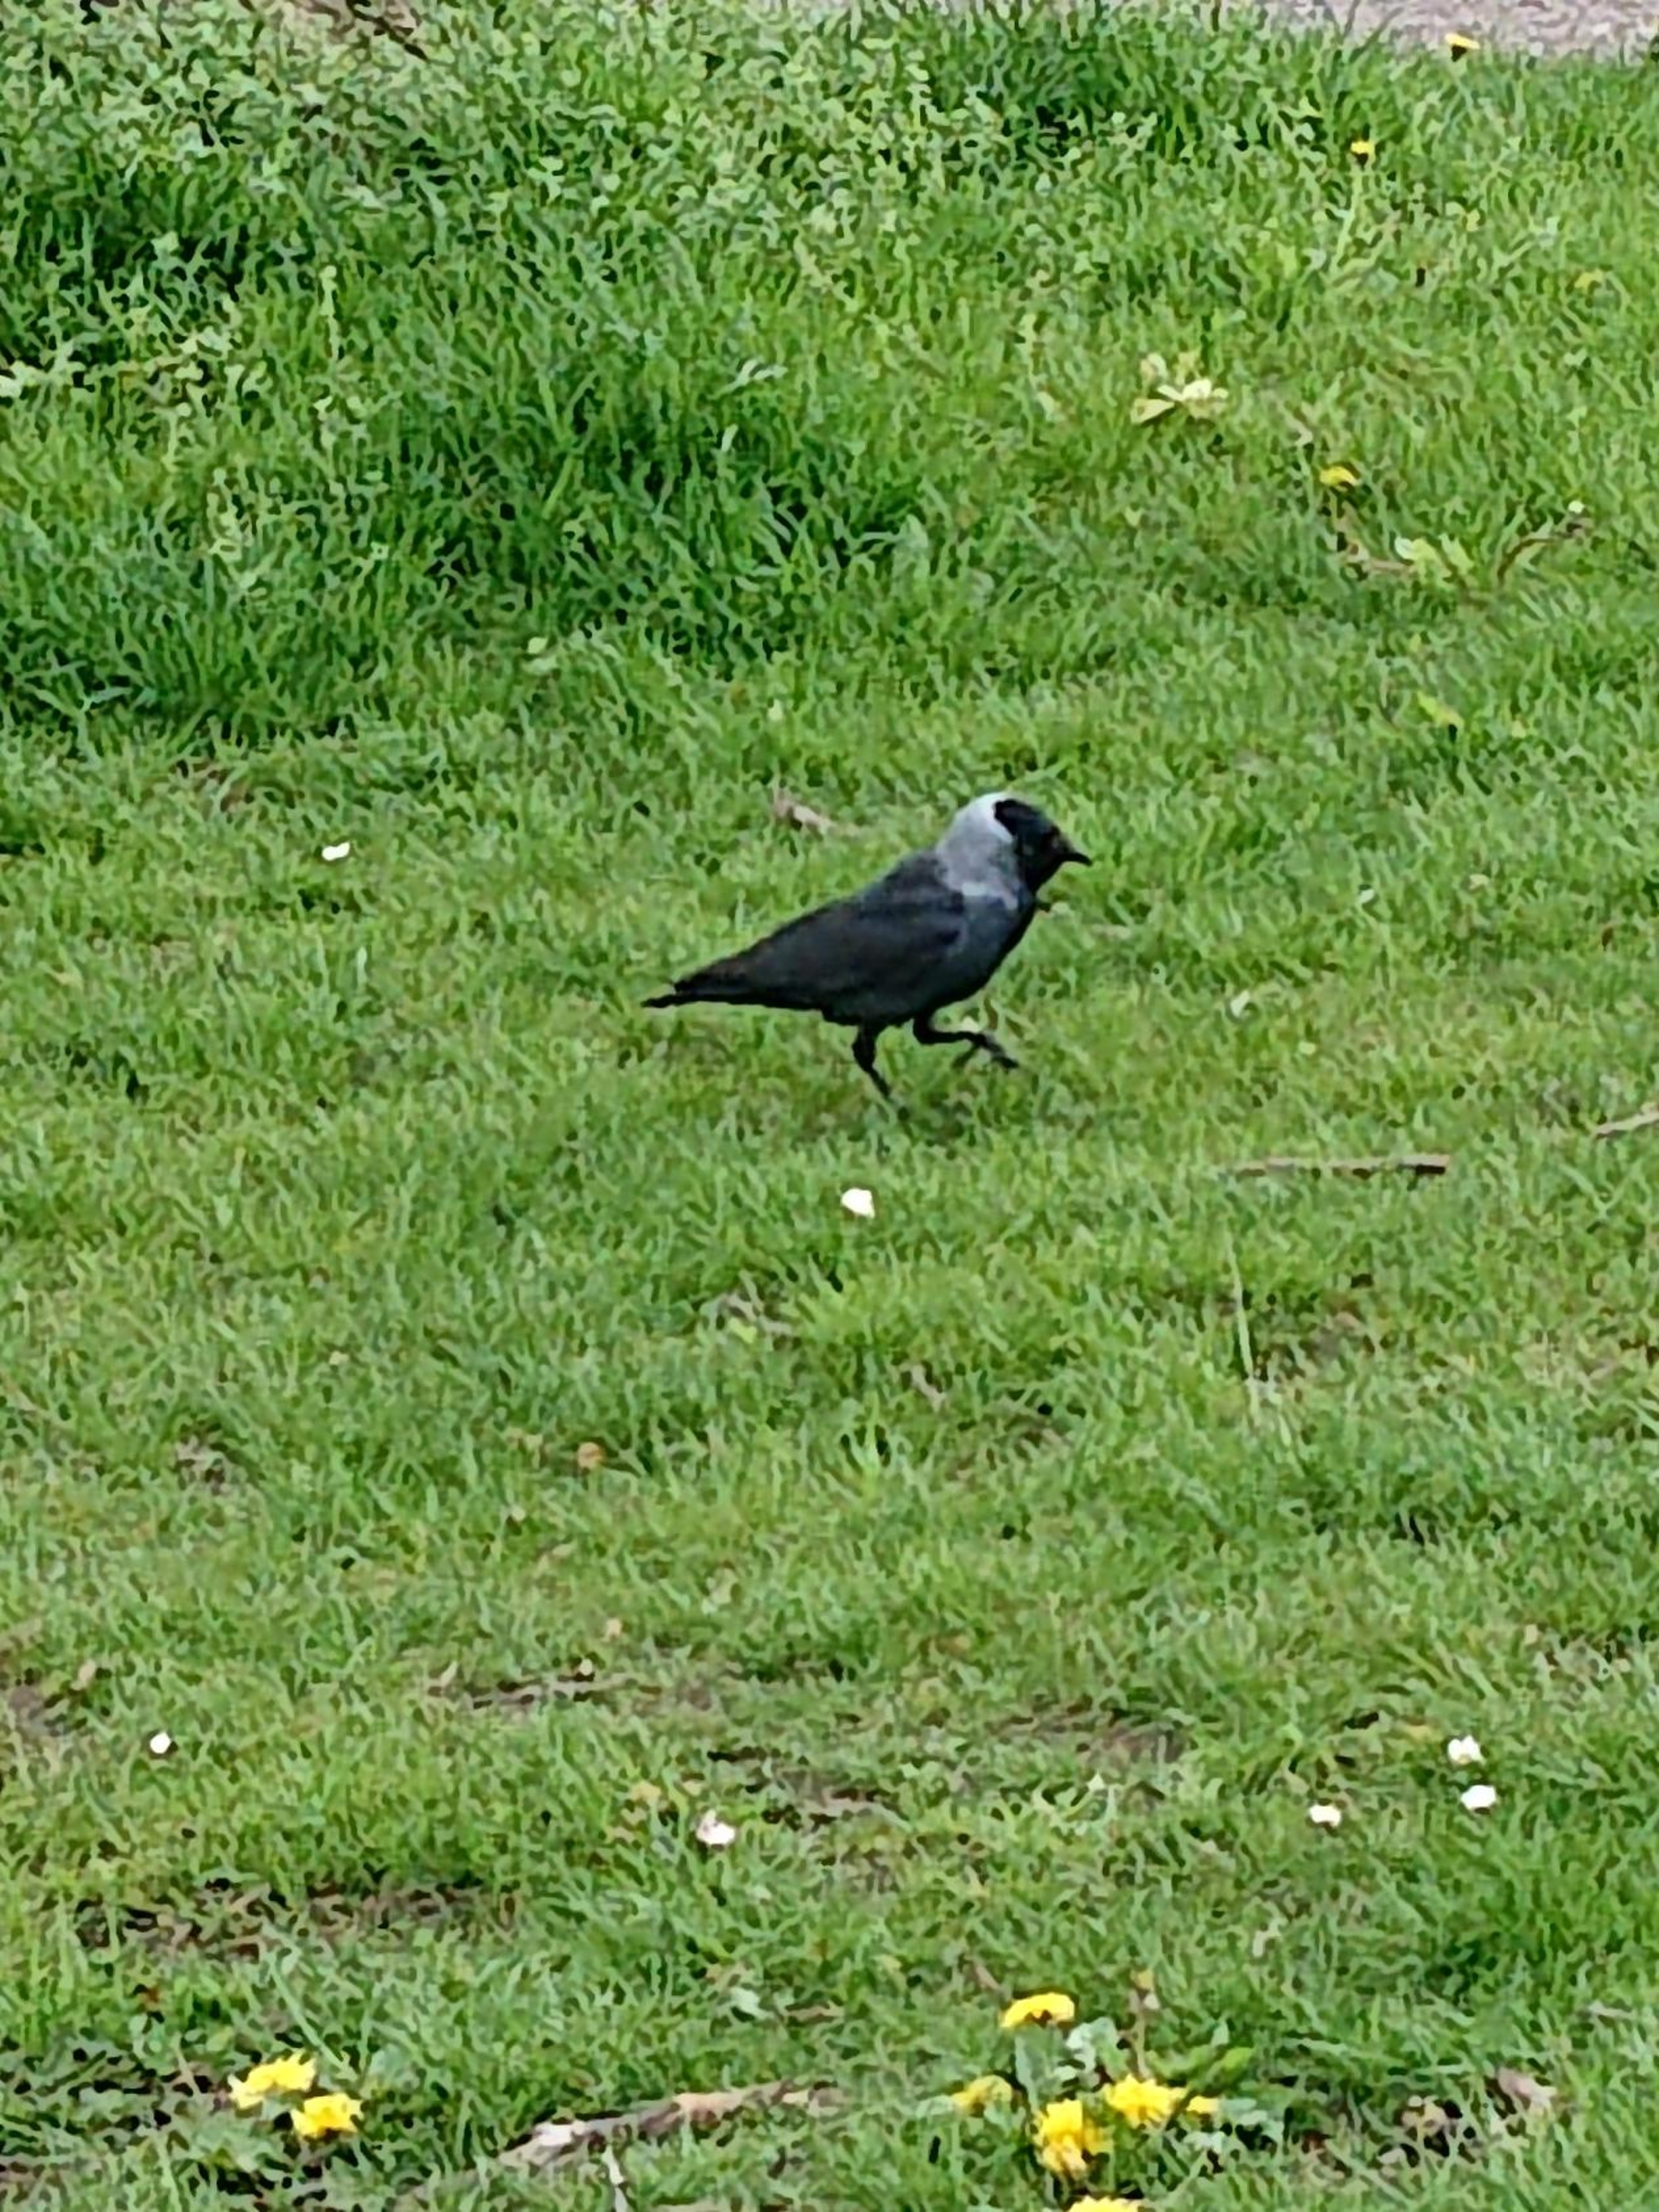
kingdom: Animalia
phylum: Chordata
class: Aves
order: Passeriformes
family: Corvidae
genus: Coloeus
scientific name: Coloeus monedula
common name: Allike
